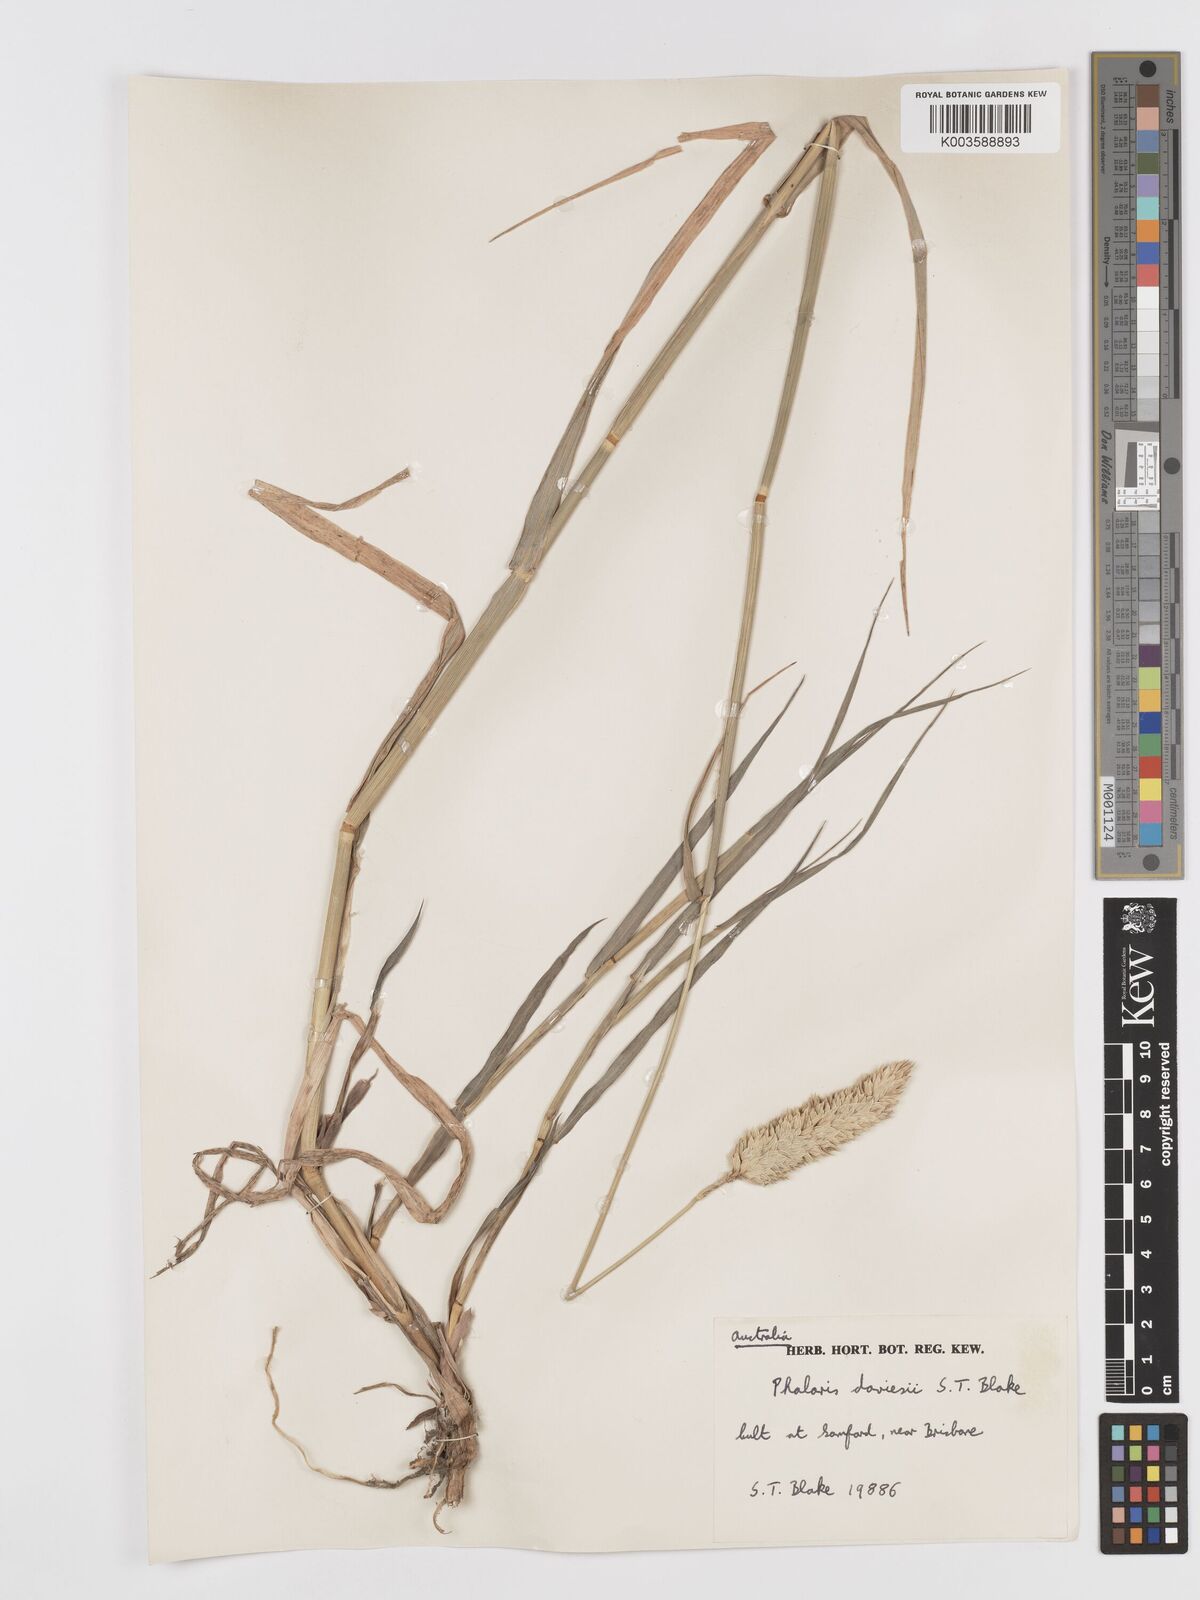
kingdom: Plantae
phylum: Tracheophyta
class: Liliopsida
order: Poales
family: Poaceae
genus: Phalaris
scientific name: Phalaris daviesii
